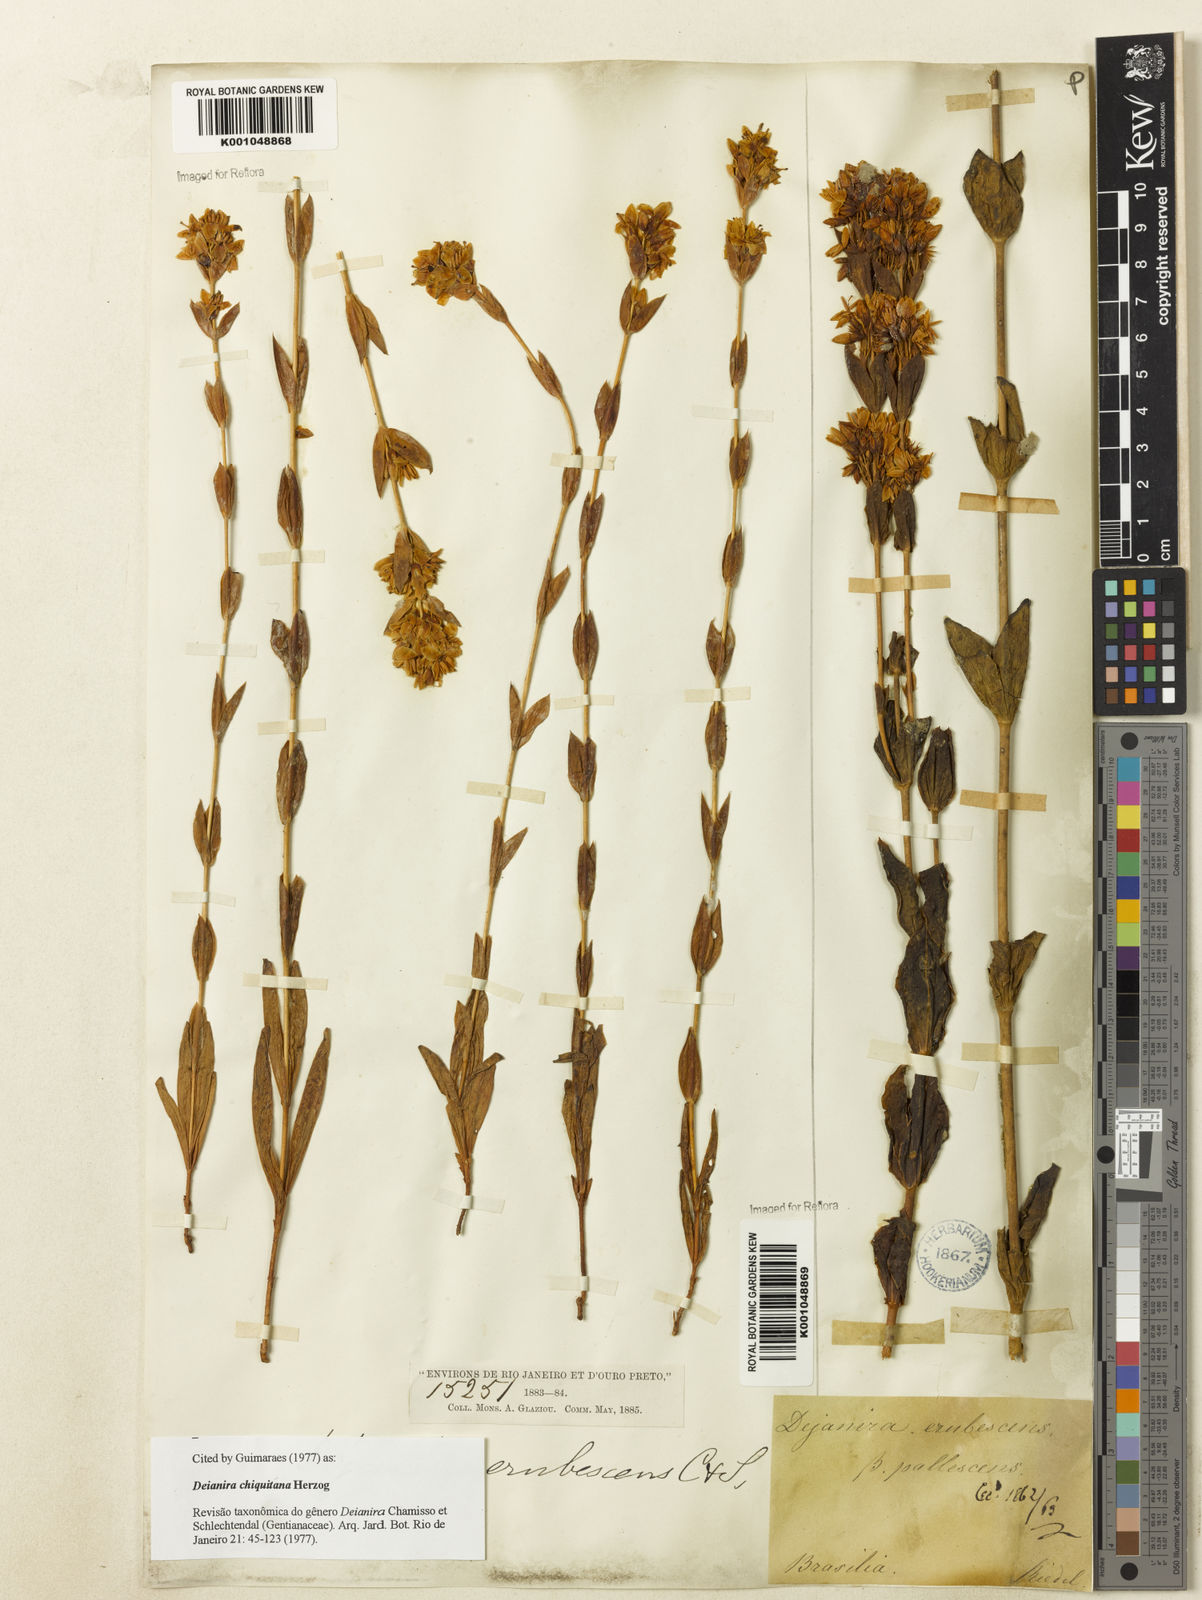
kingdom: Plantae
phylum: Tracheophyta
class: Magnoliopsida
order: Gentianales
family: Gentianaceae
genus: Deianira
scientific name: Deianira chiquitana
